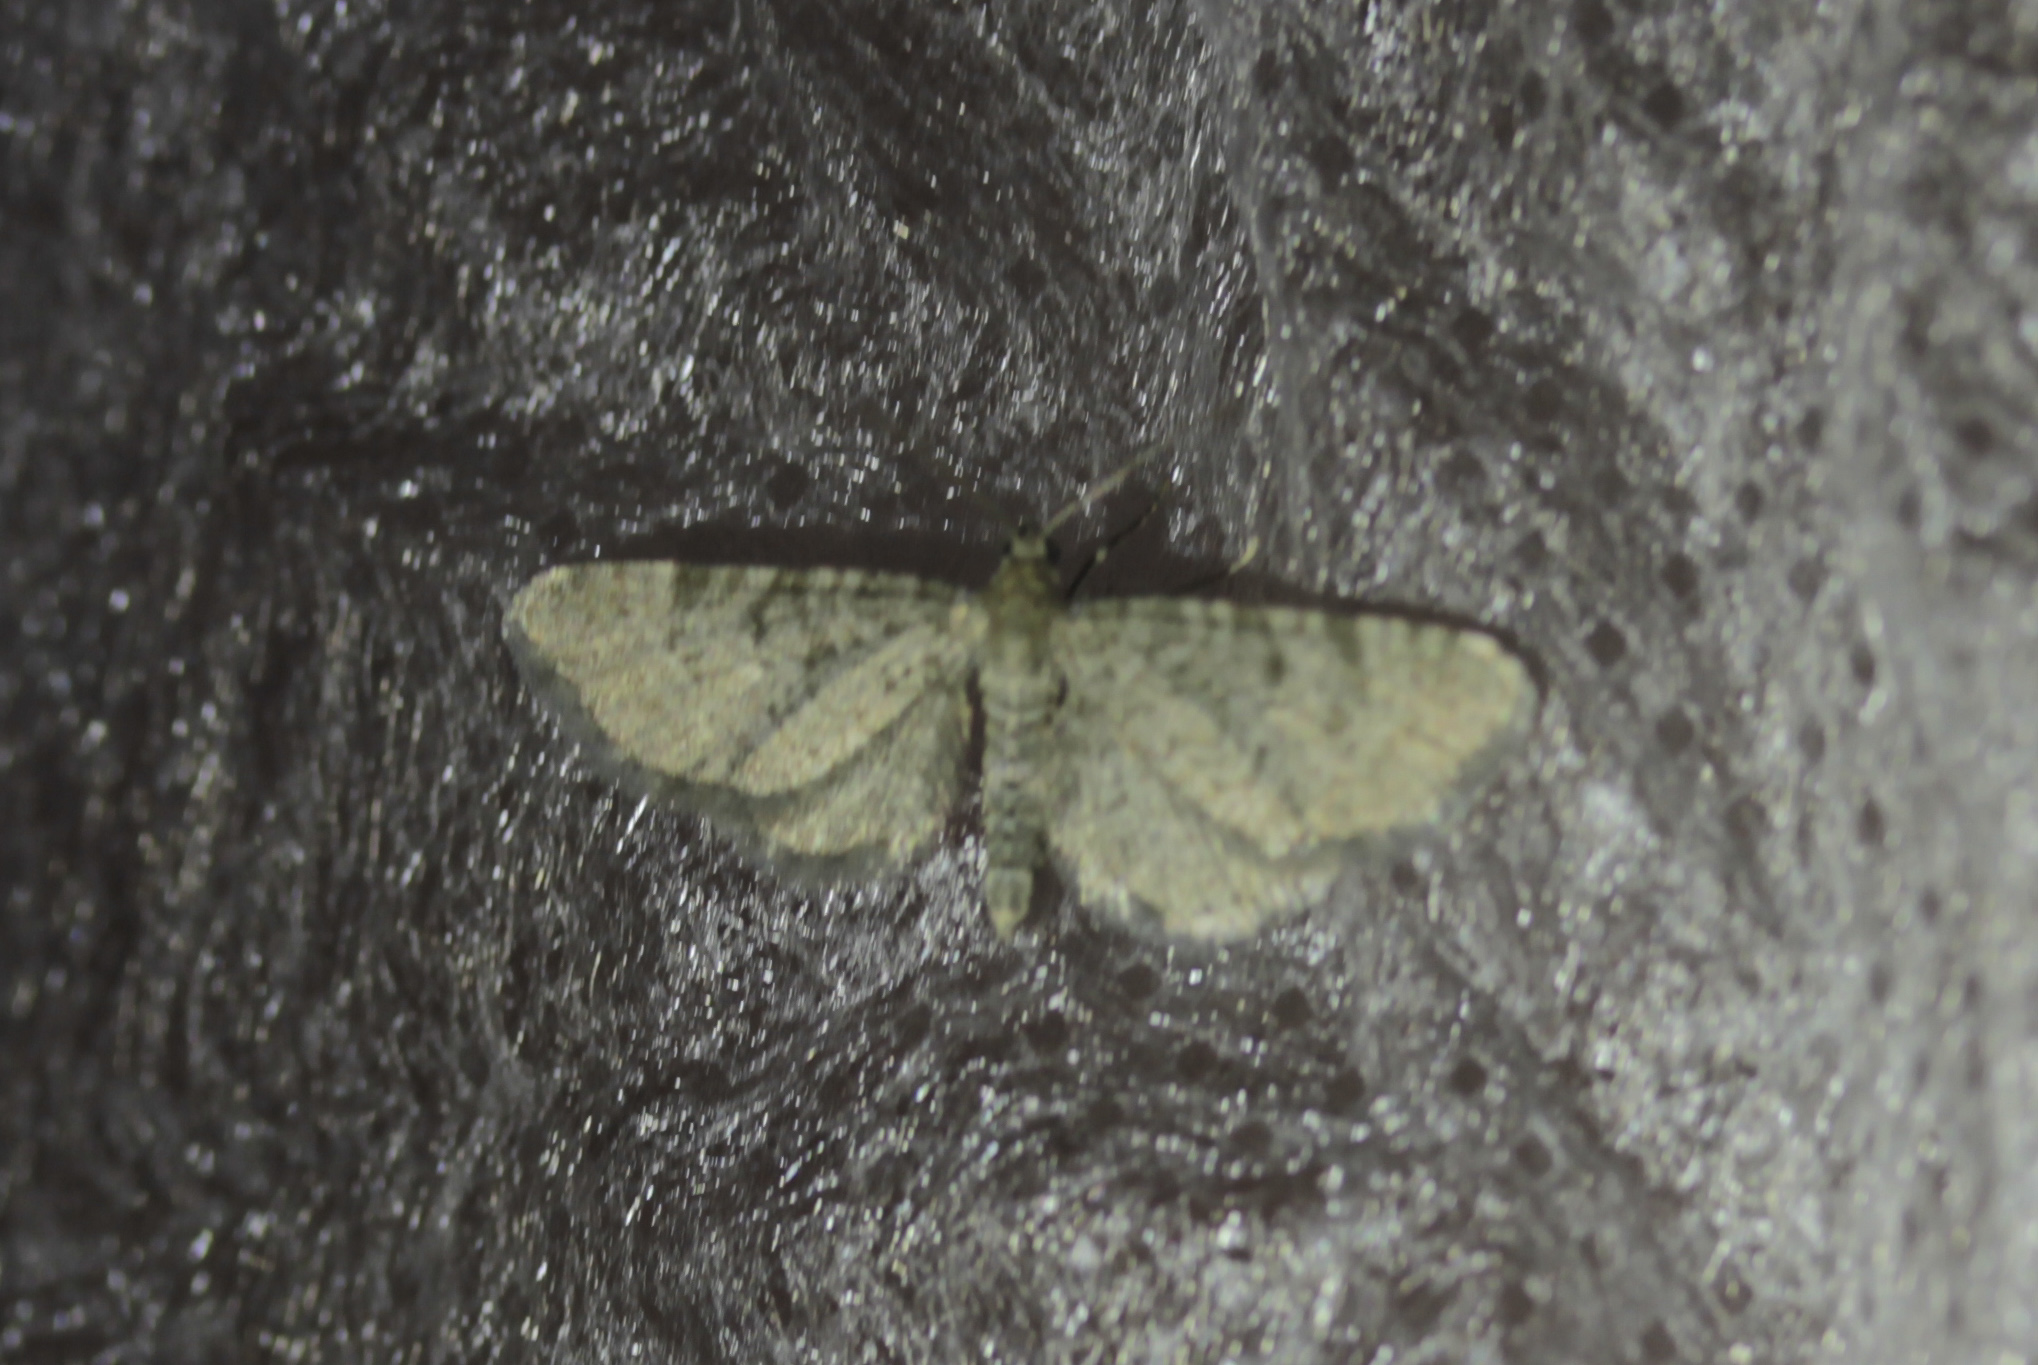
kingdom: Animalia
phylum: Arthropoda
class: Insecta
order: Lepidoptera
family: Geometridae
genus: Eupithecia
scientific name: Eupithecia
